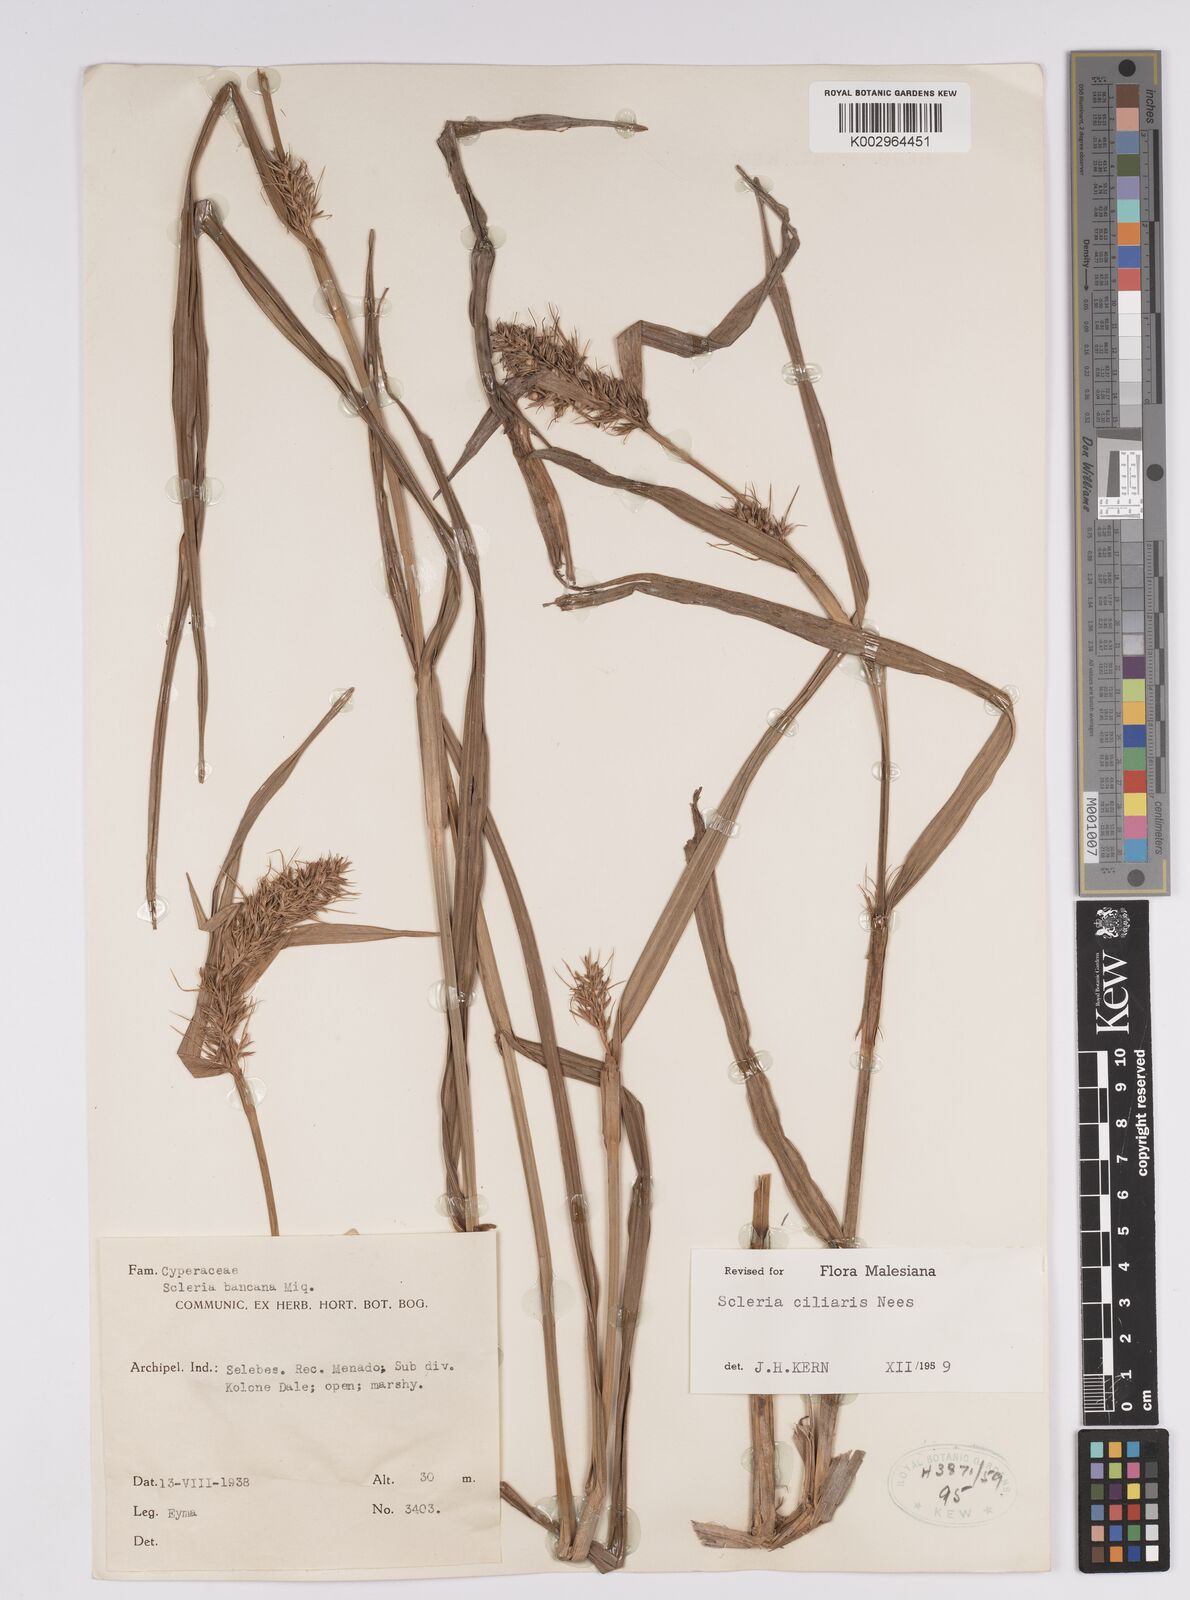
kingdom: Plantae
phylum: Tracheophyta
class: Liliopsida
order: Poales
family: Cyperaceae
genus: Scleria
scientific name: Scleria ciliaris
